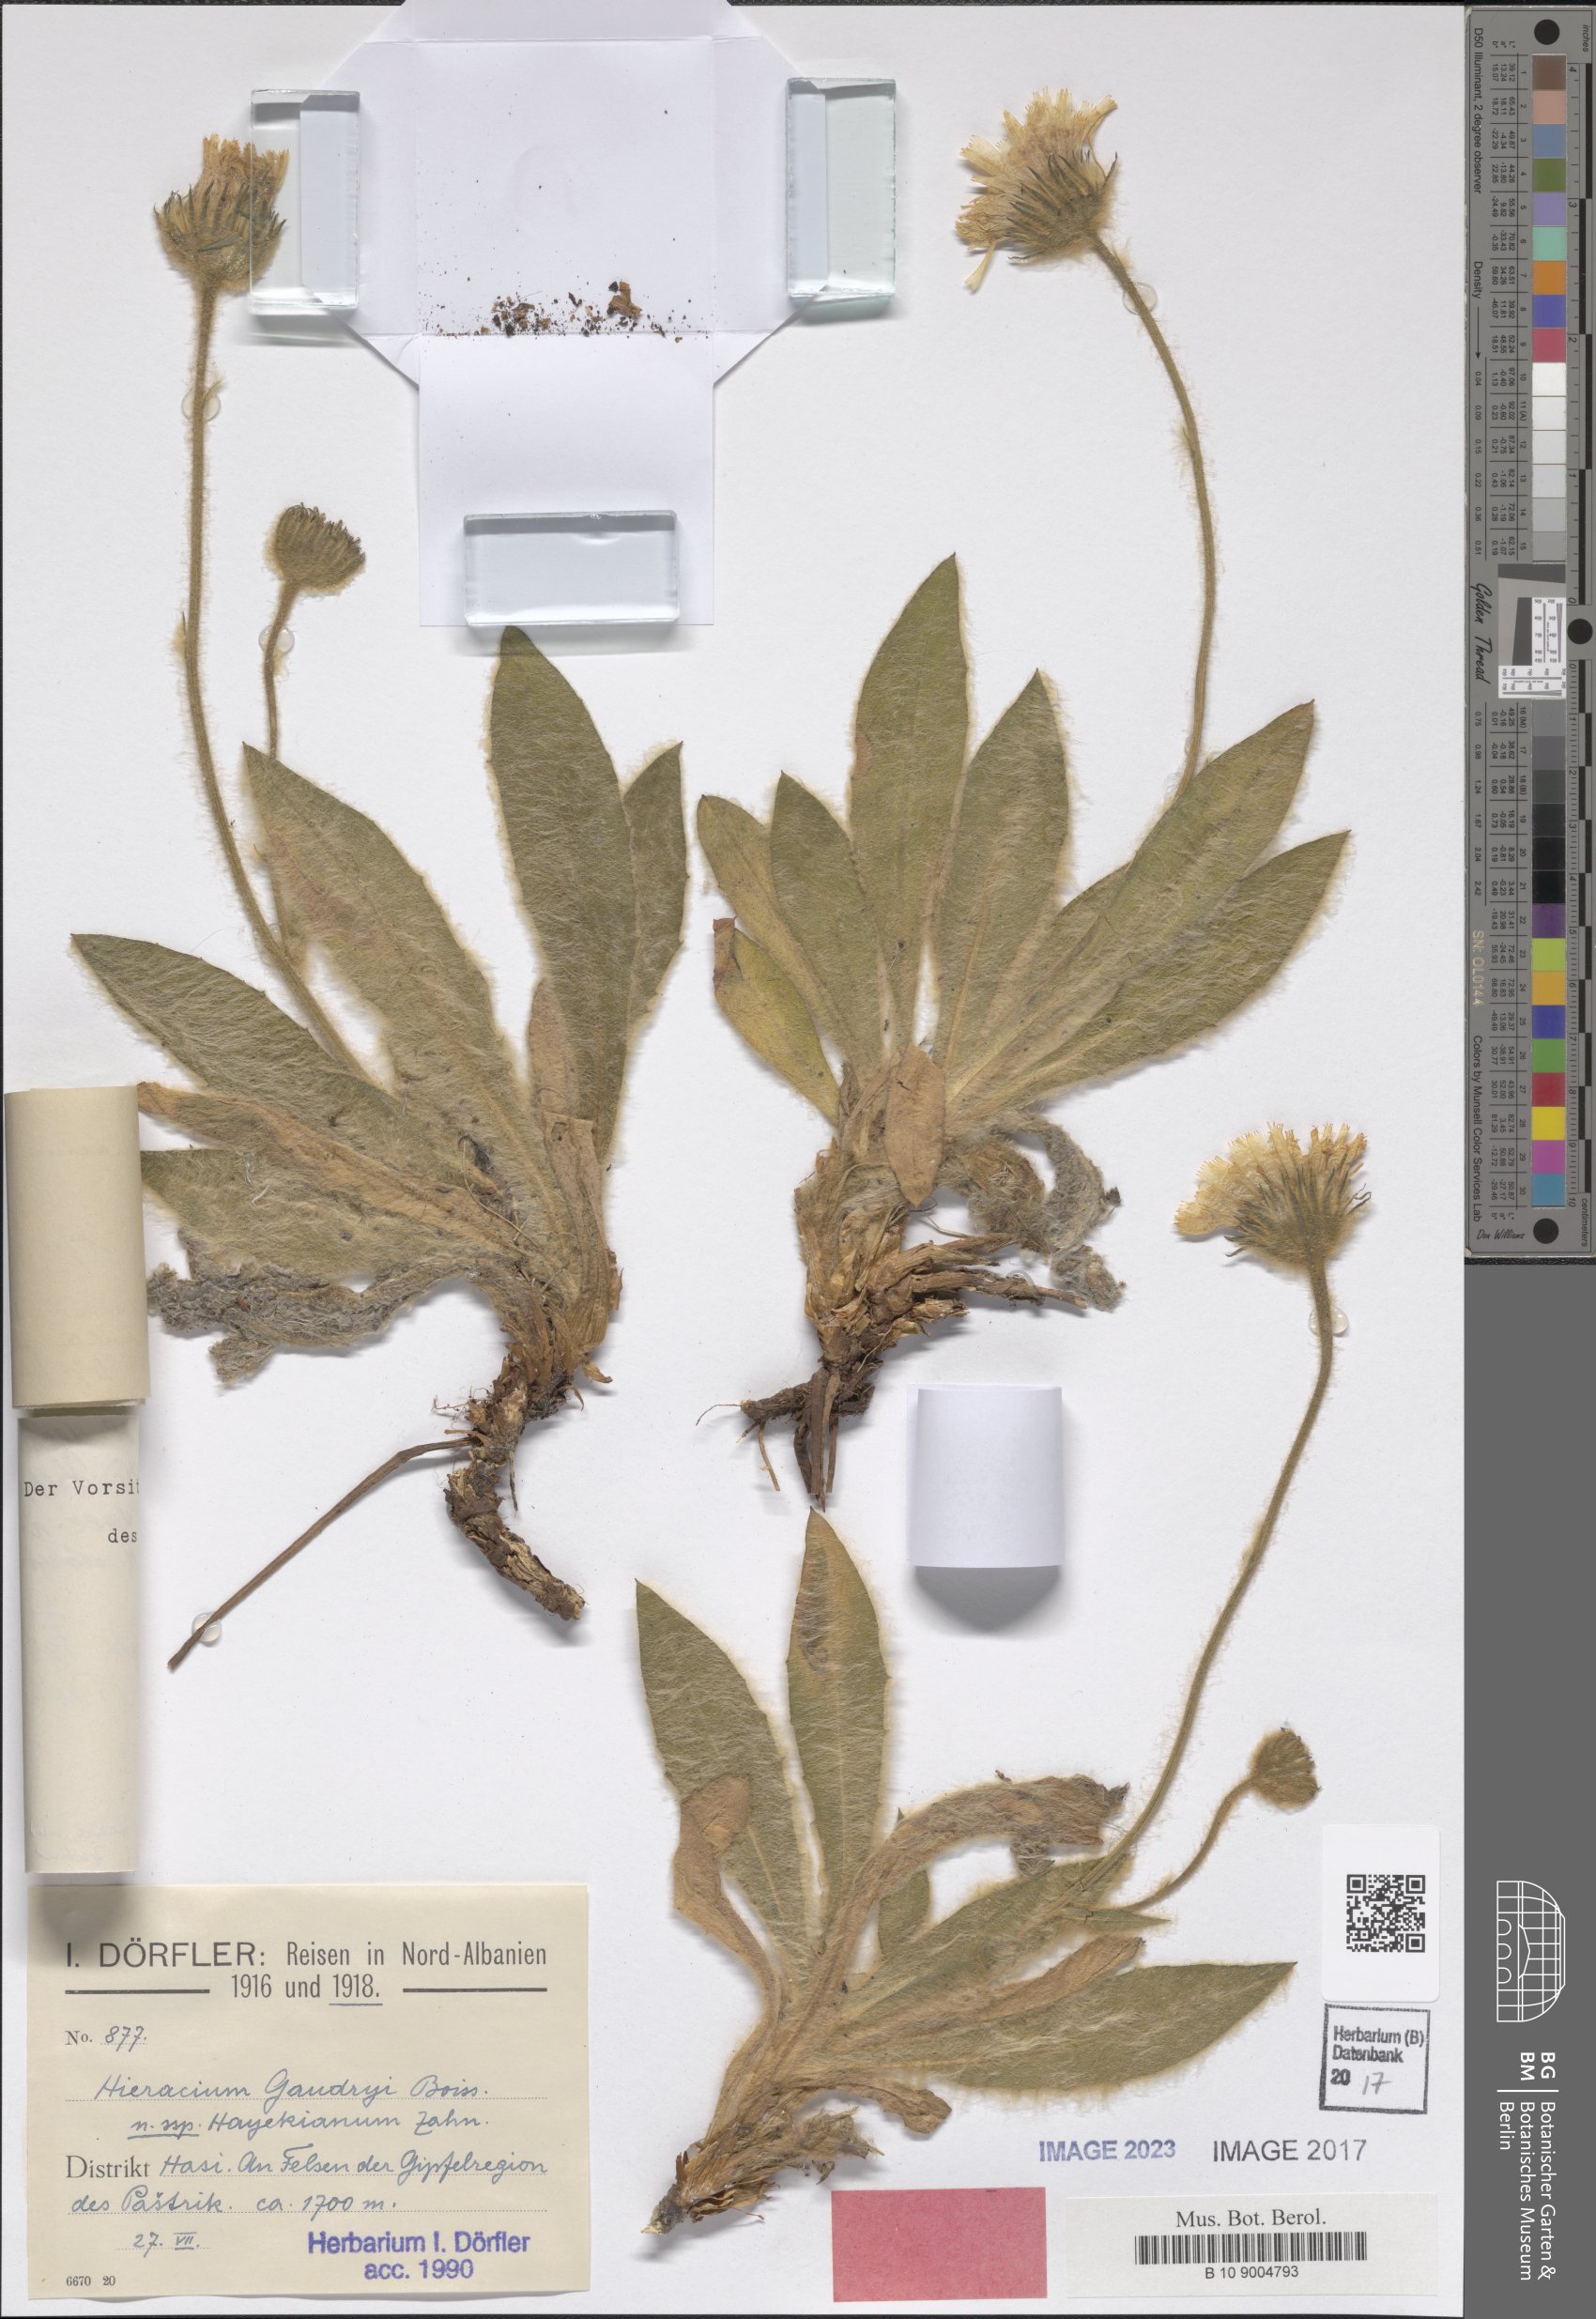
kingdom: Plantae
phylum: Tracheophyta
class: Magnoliopsida
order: Asterales
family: Asteraceae
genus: Hieracium
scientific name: Hieracium gaudryi
